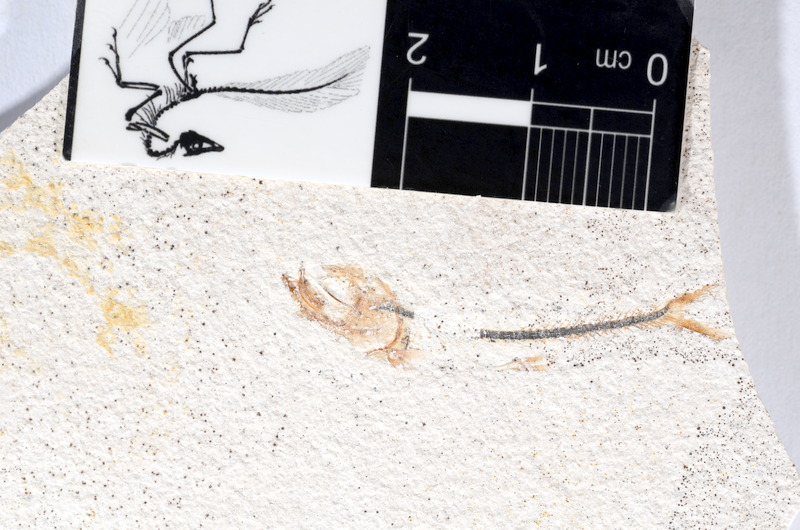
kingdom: Animalia
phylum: Chordata
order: Salmoniformes
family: Orthogonikleithridae
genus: Orthogonikleithrus
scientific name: Orthogonikleithrus hoelli
